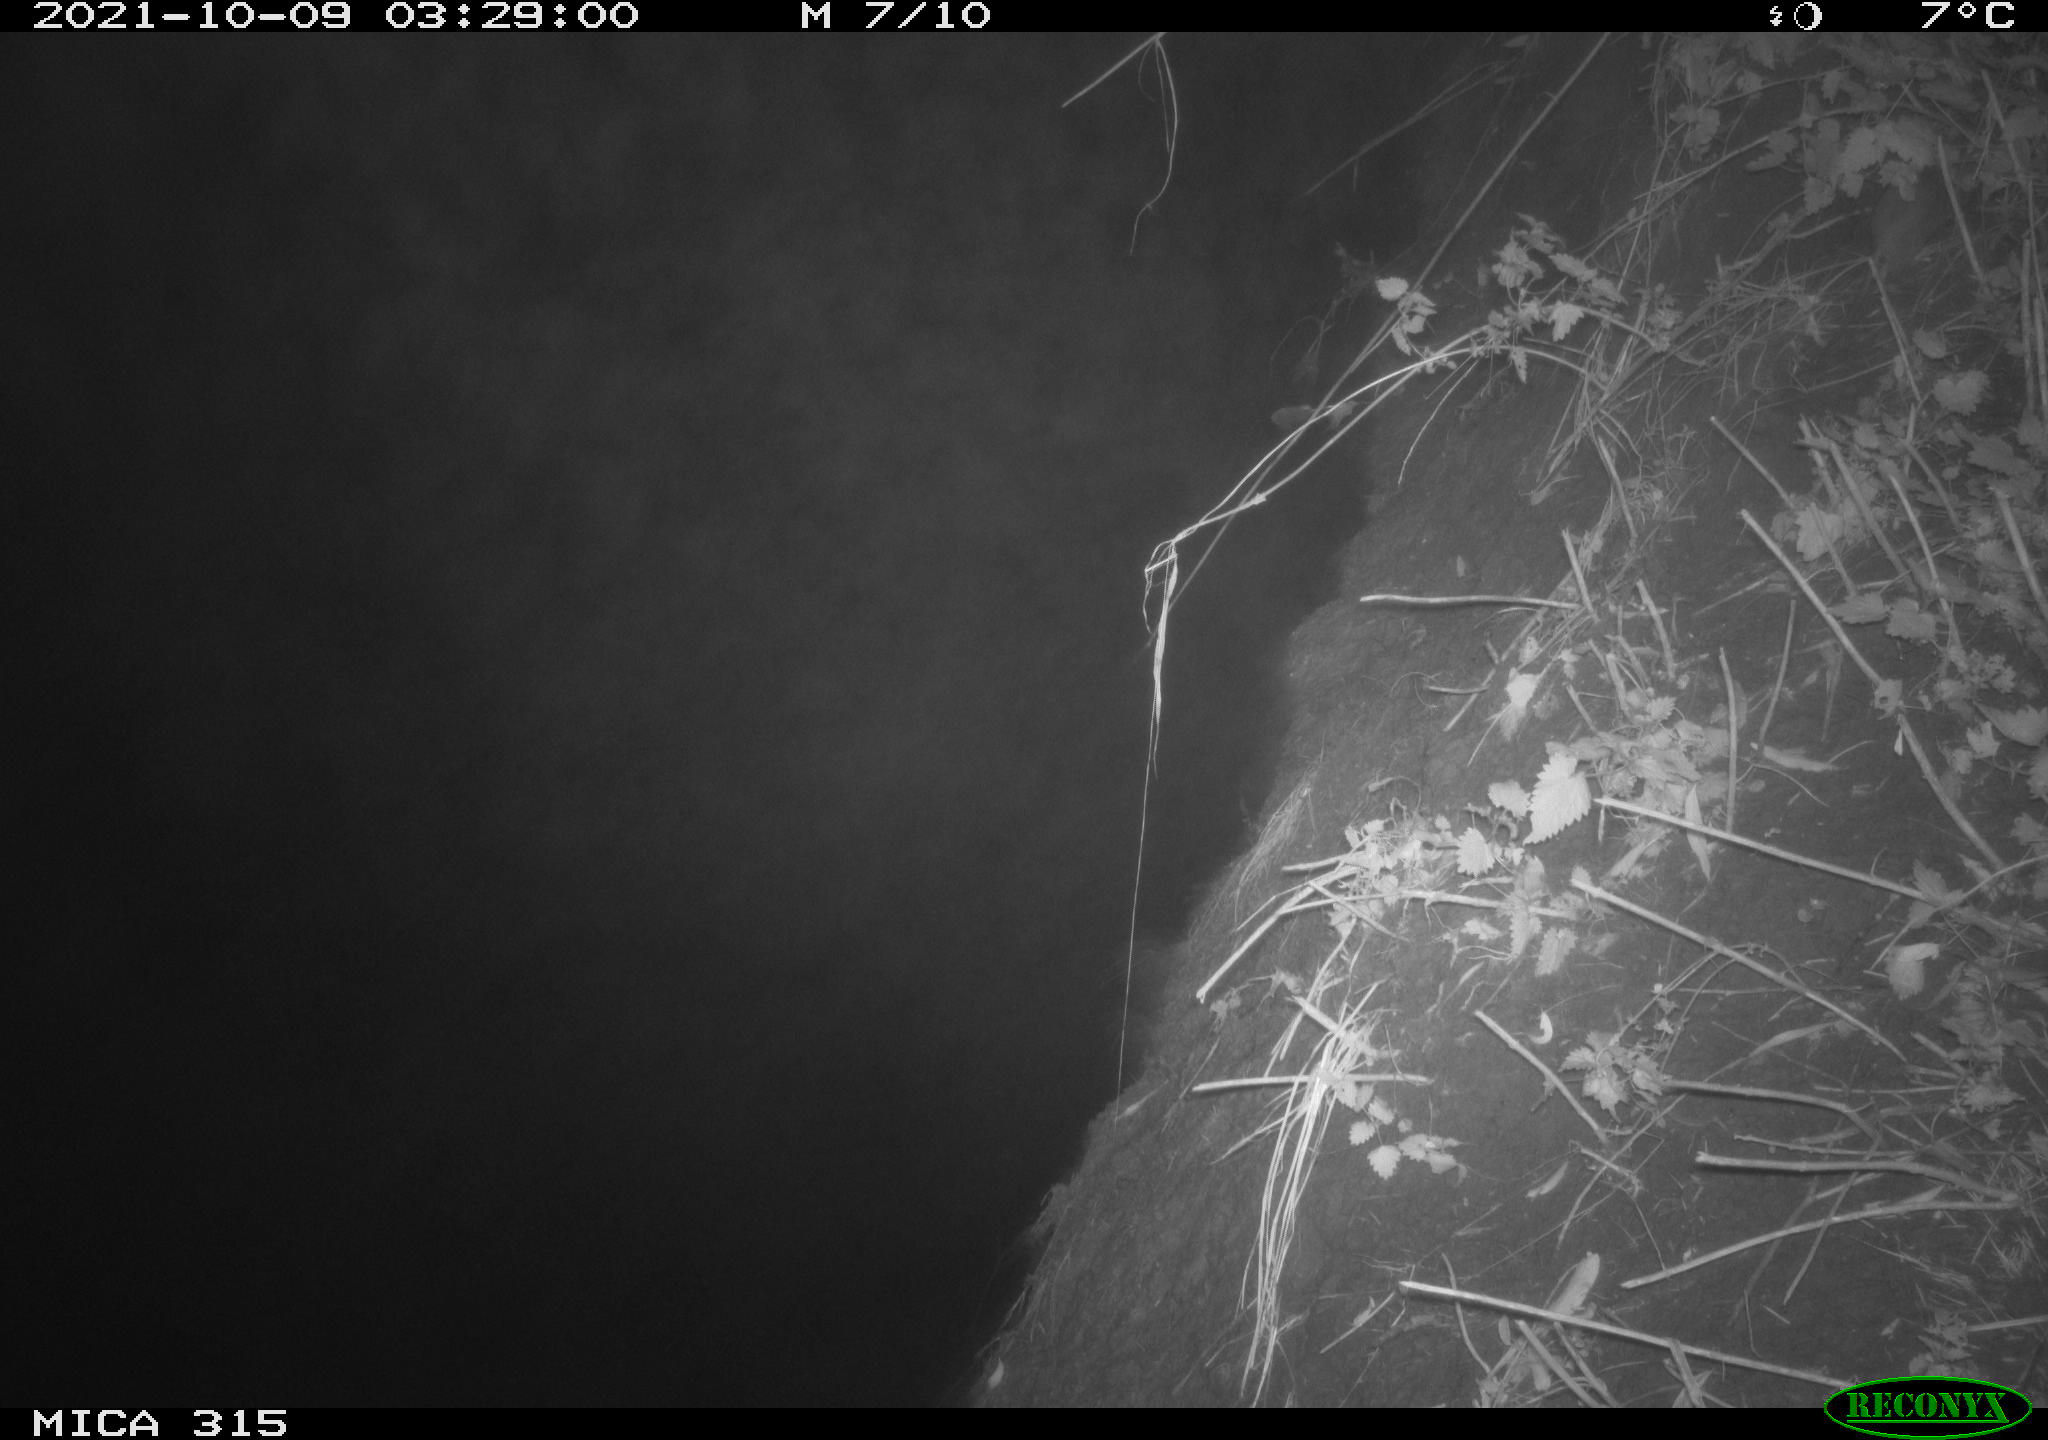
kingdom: Animalia
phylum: Chordata
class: Mammalia
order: Rodentia
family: Muridae
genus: Rattus
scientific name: Rattus norvegicus
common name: Brown rat
